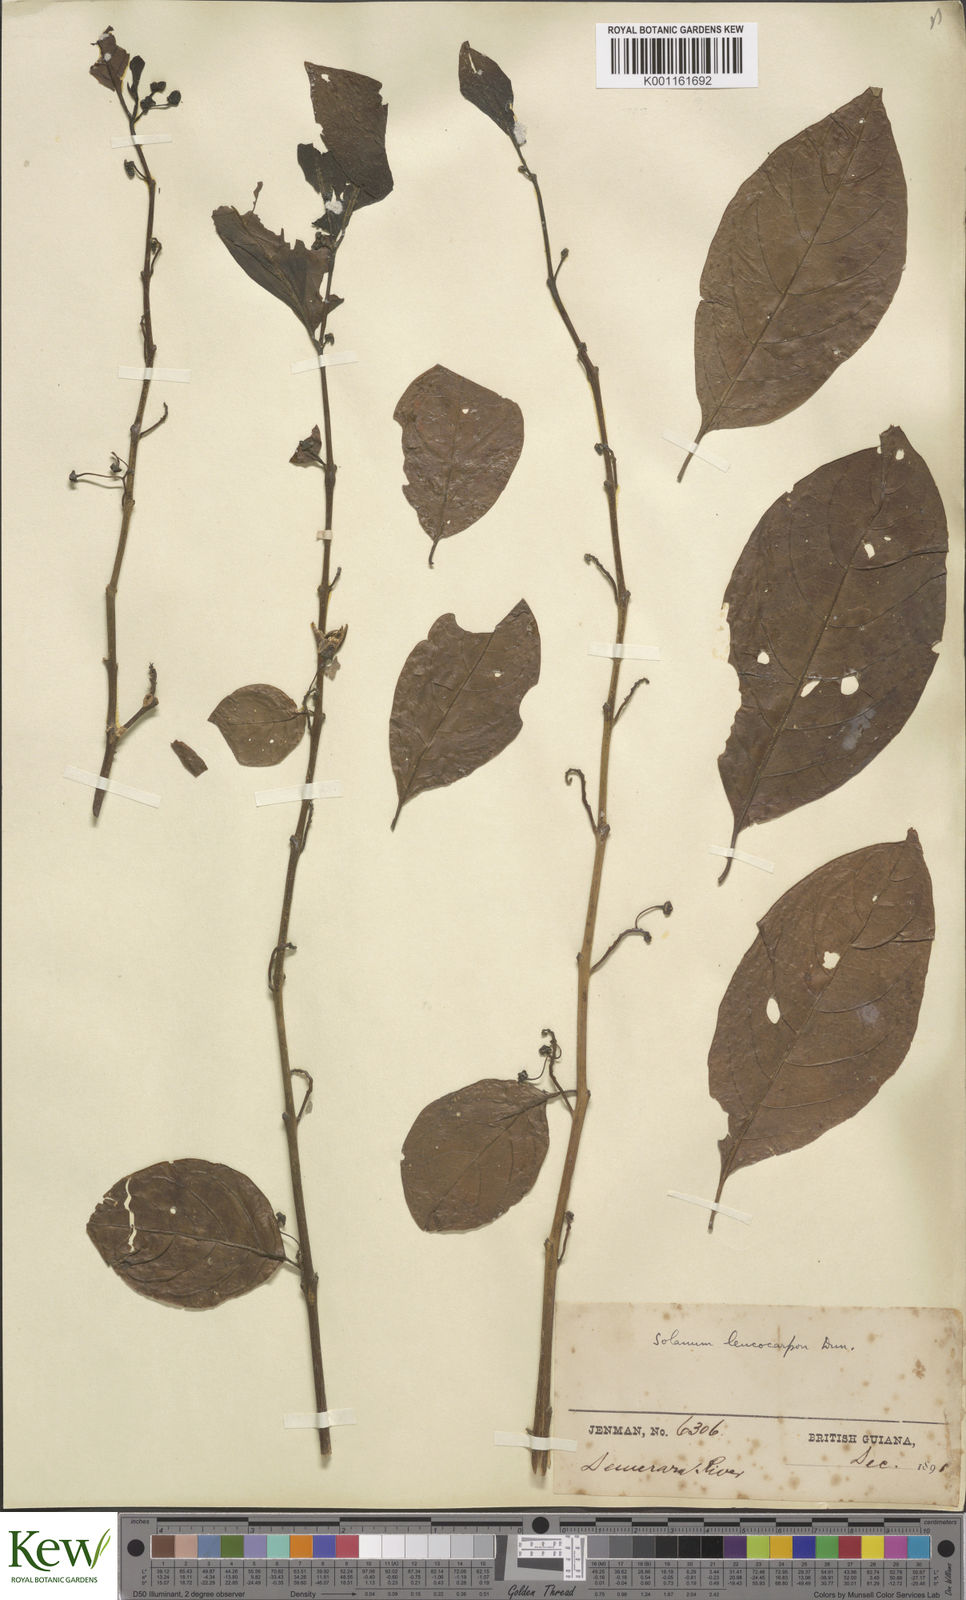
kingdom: Plantae
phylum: Tracheophyta
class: Magnoliopsida
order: Solanales
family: Solanaceae
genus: Solanum
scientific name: Solanum leucocarpon
